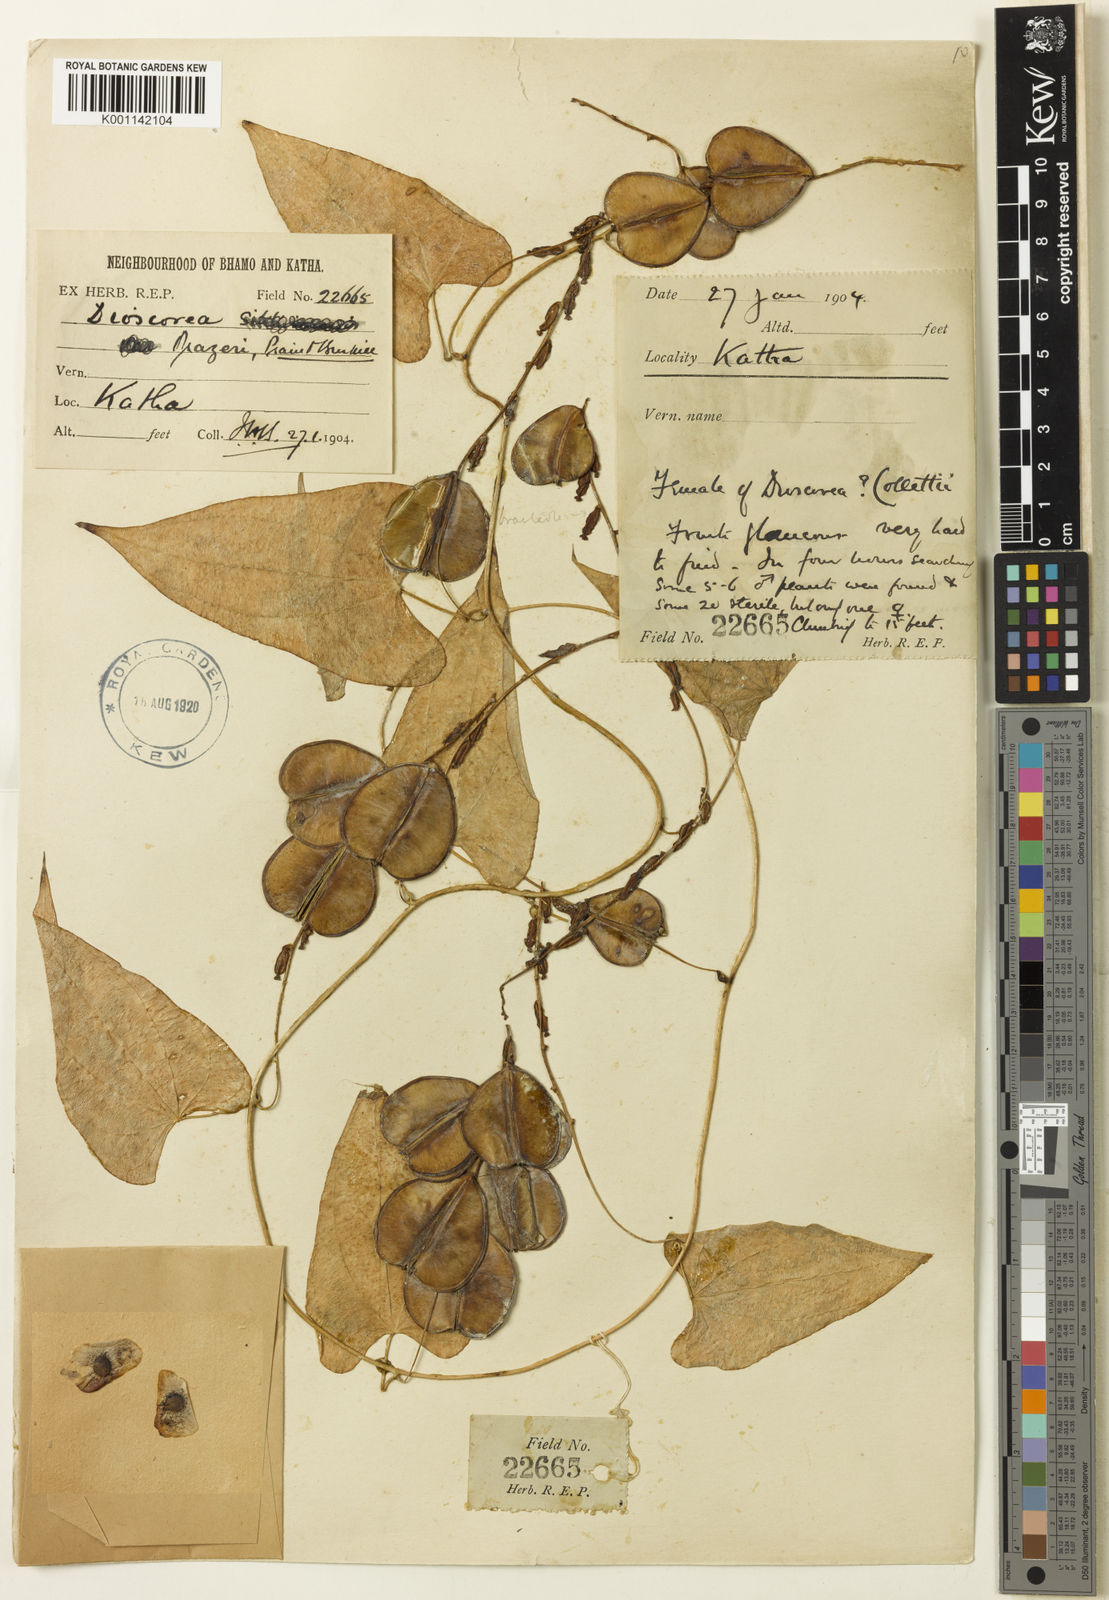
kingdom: Plantae
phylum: Tracheophyta
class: Liliopsida
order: Dioscoreales
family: Dioscoreaceae
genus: Dioscorea
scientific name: Dioscorea prazeri
